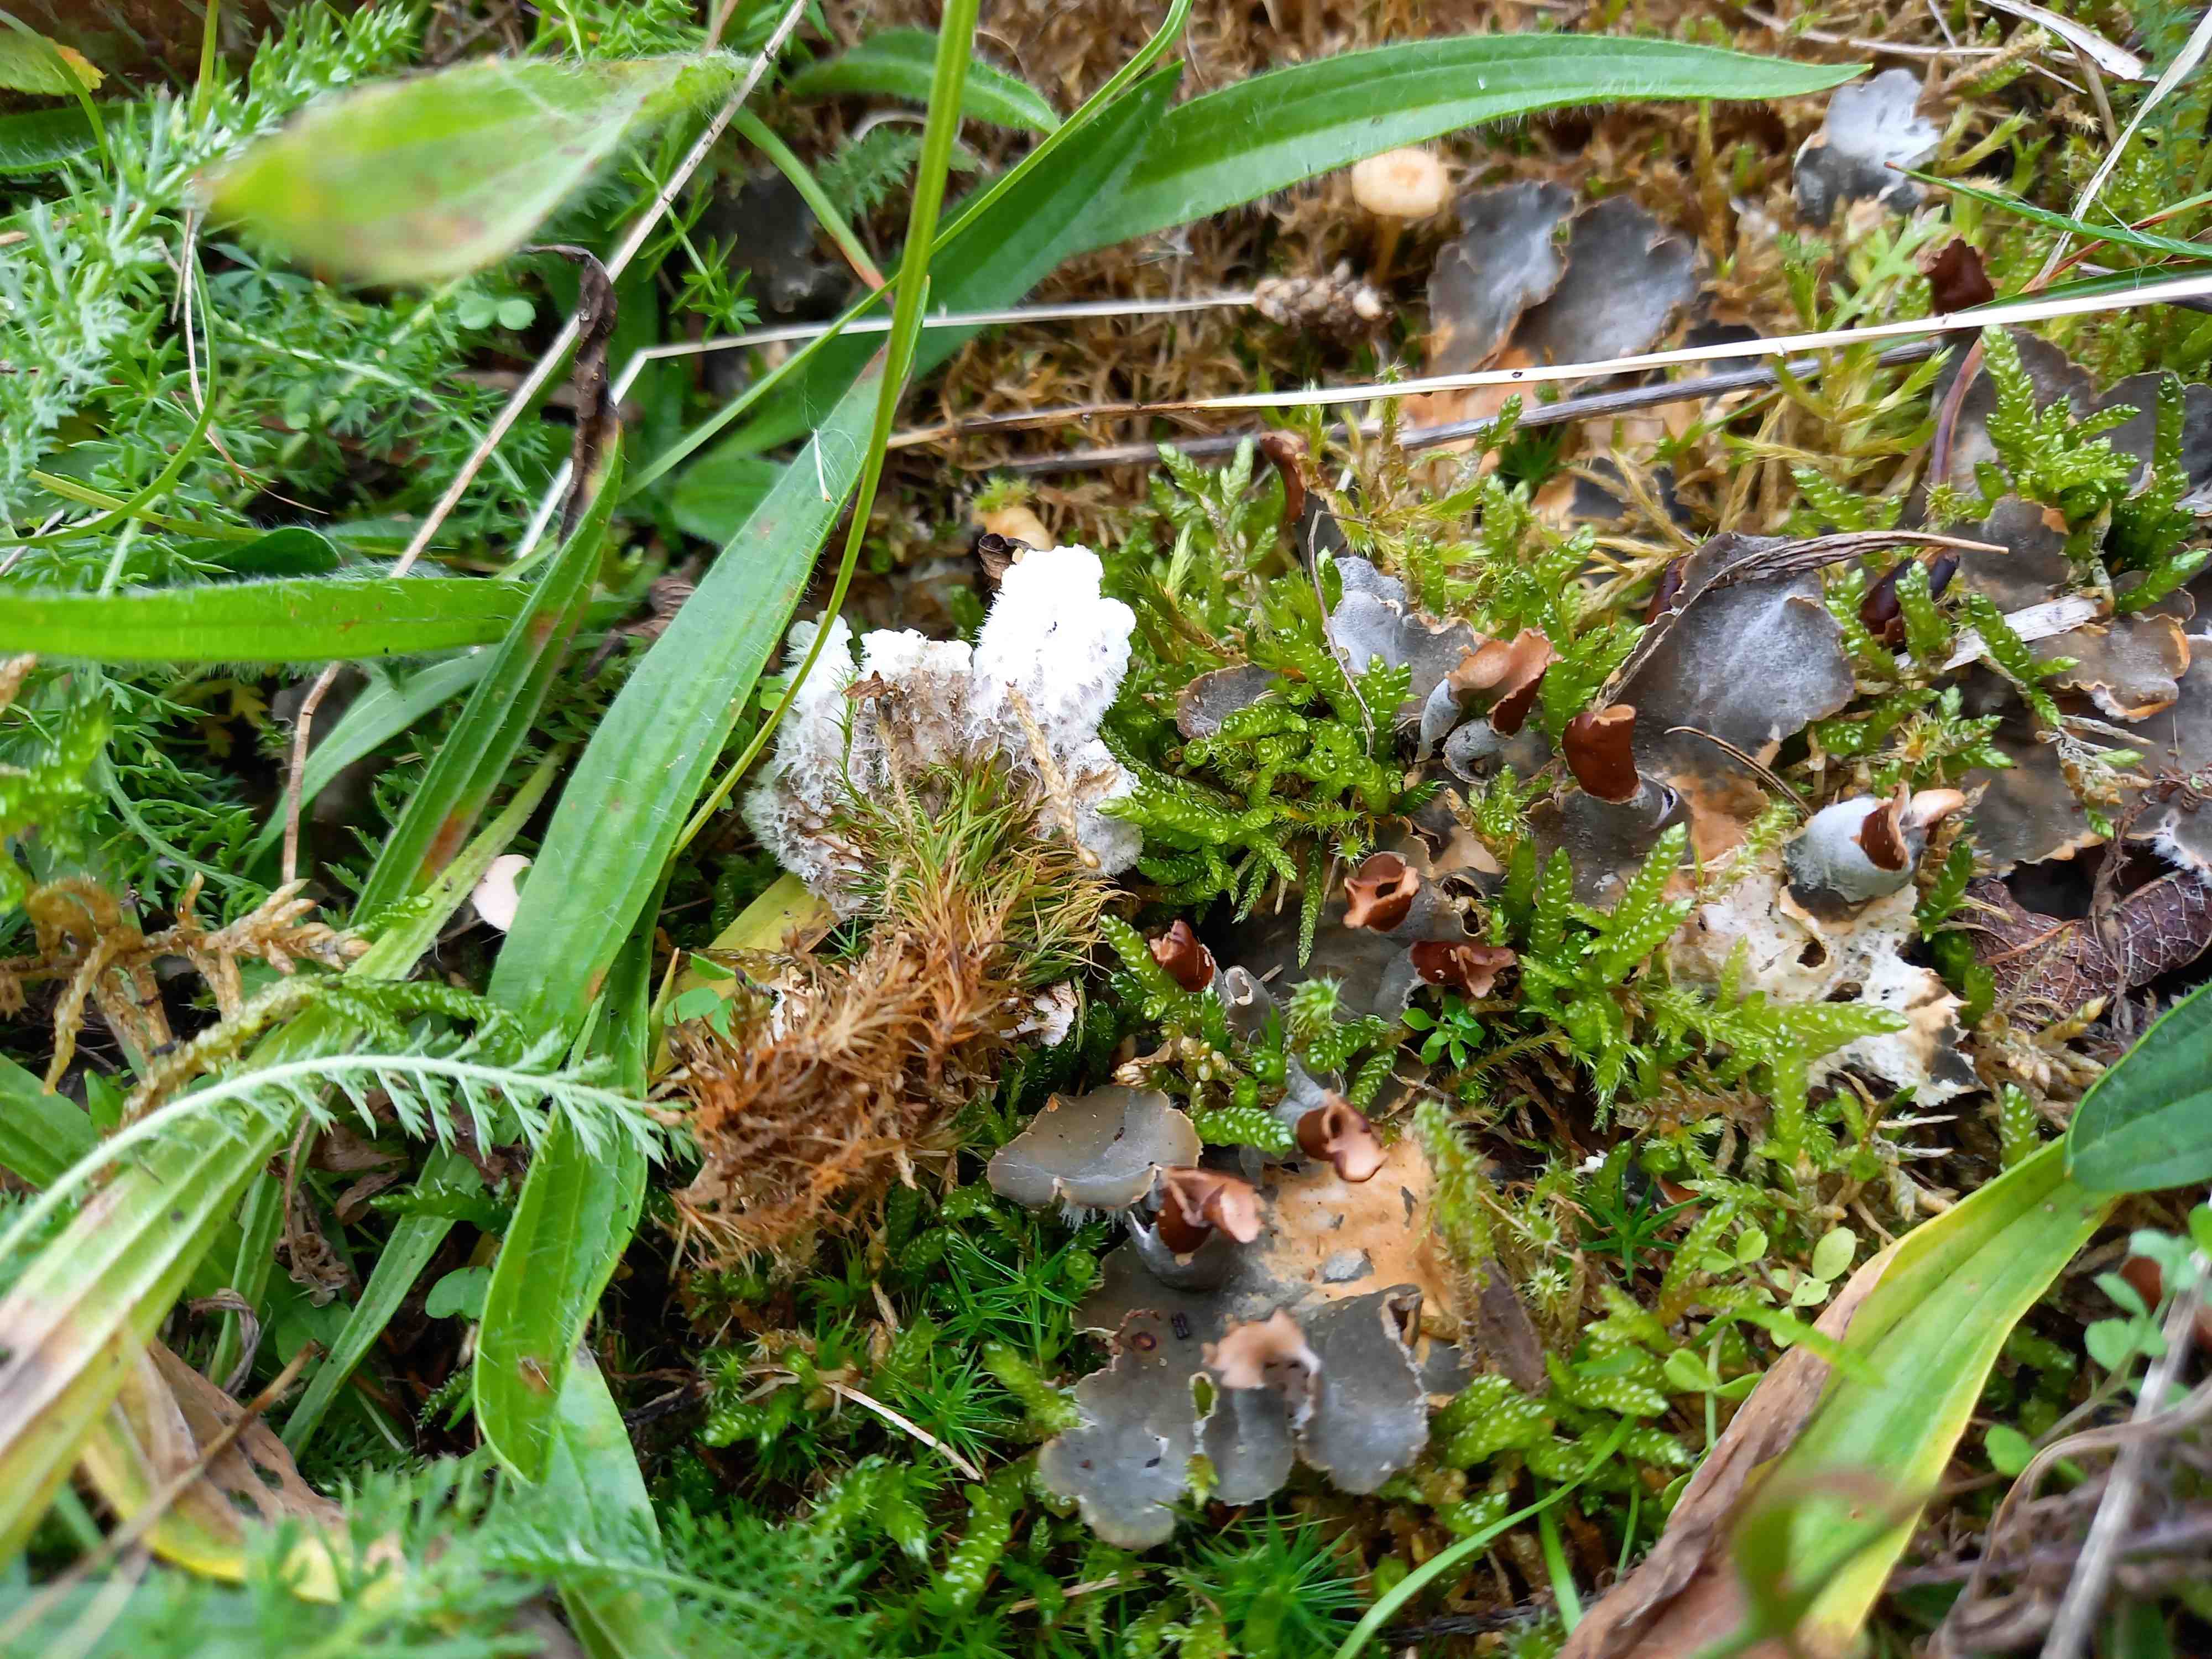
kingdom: Fungi
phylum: Ascomycota
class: Lecanoromycetes
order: Peltigerales
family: Peltigeraceae
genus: Peltigera
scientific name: Peltigera
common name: skjoldlav
